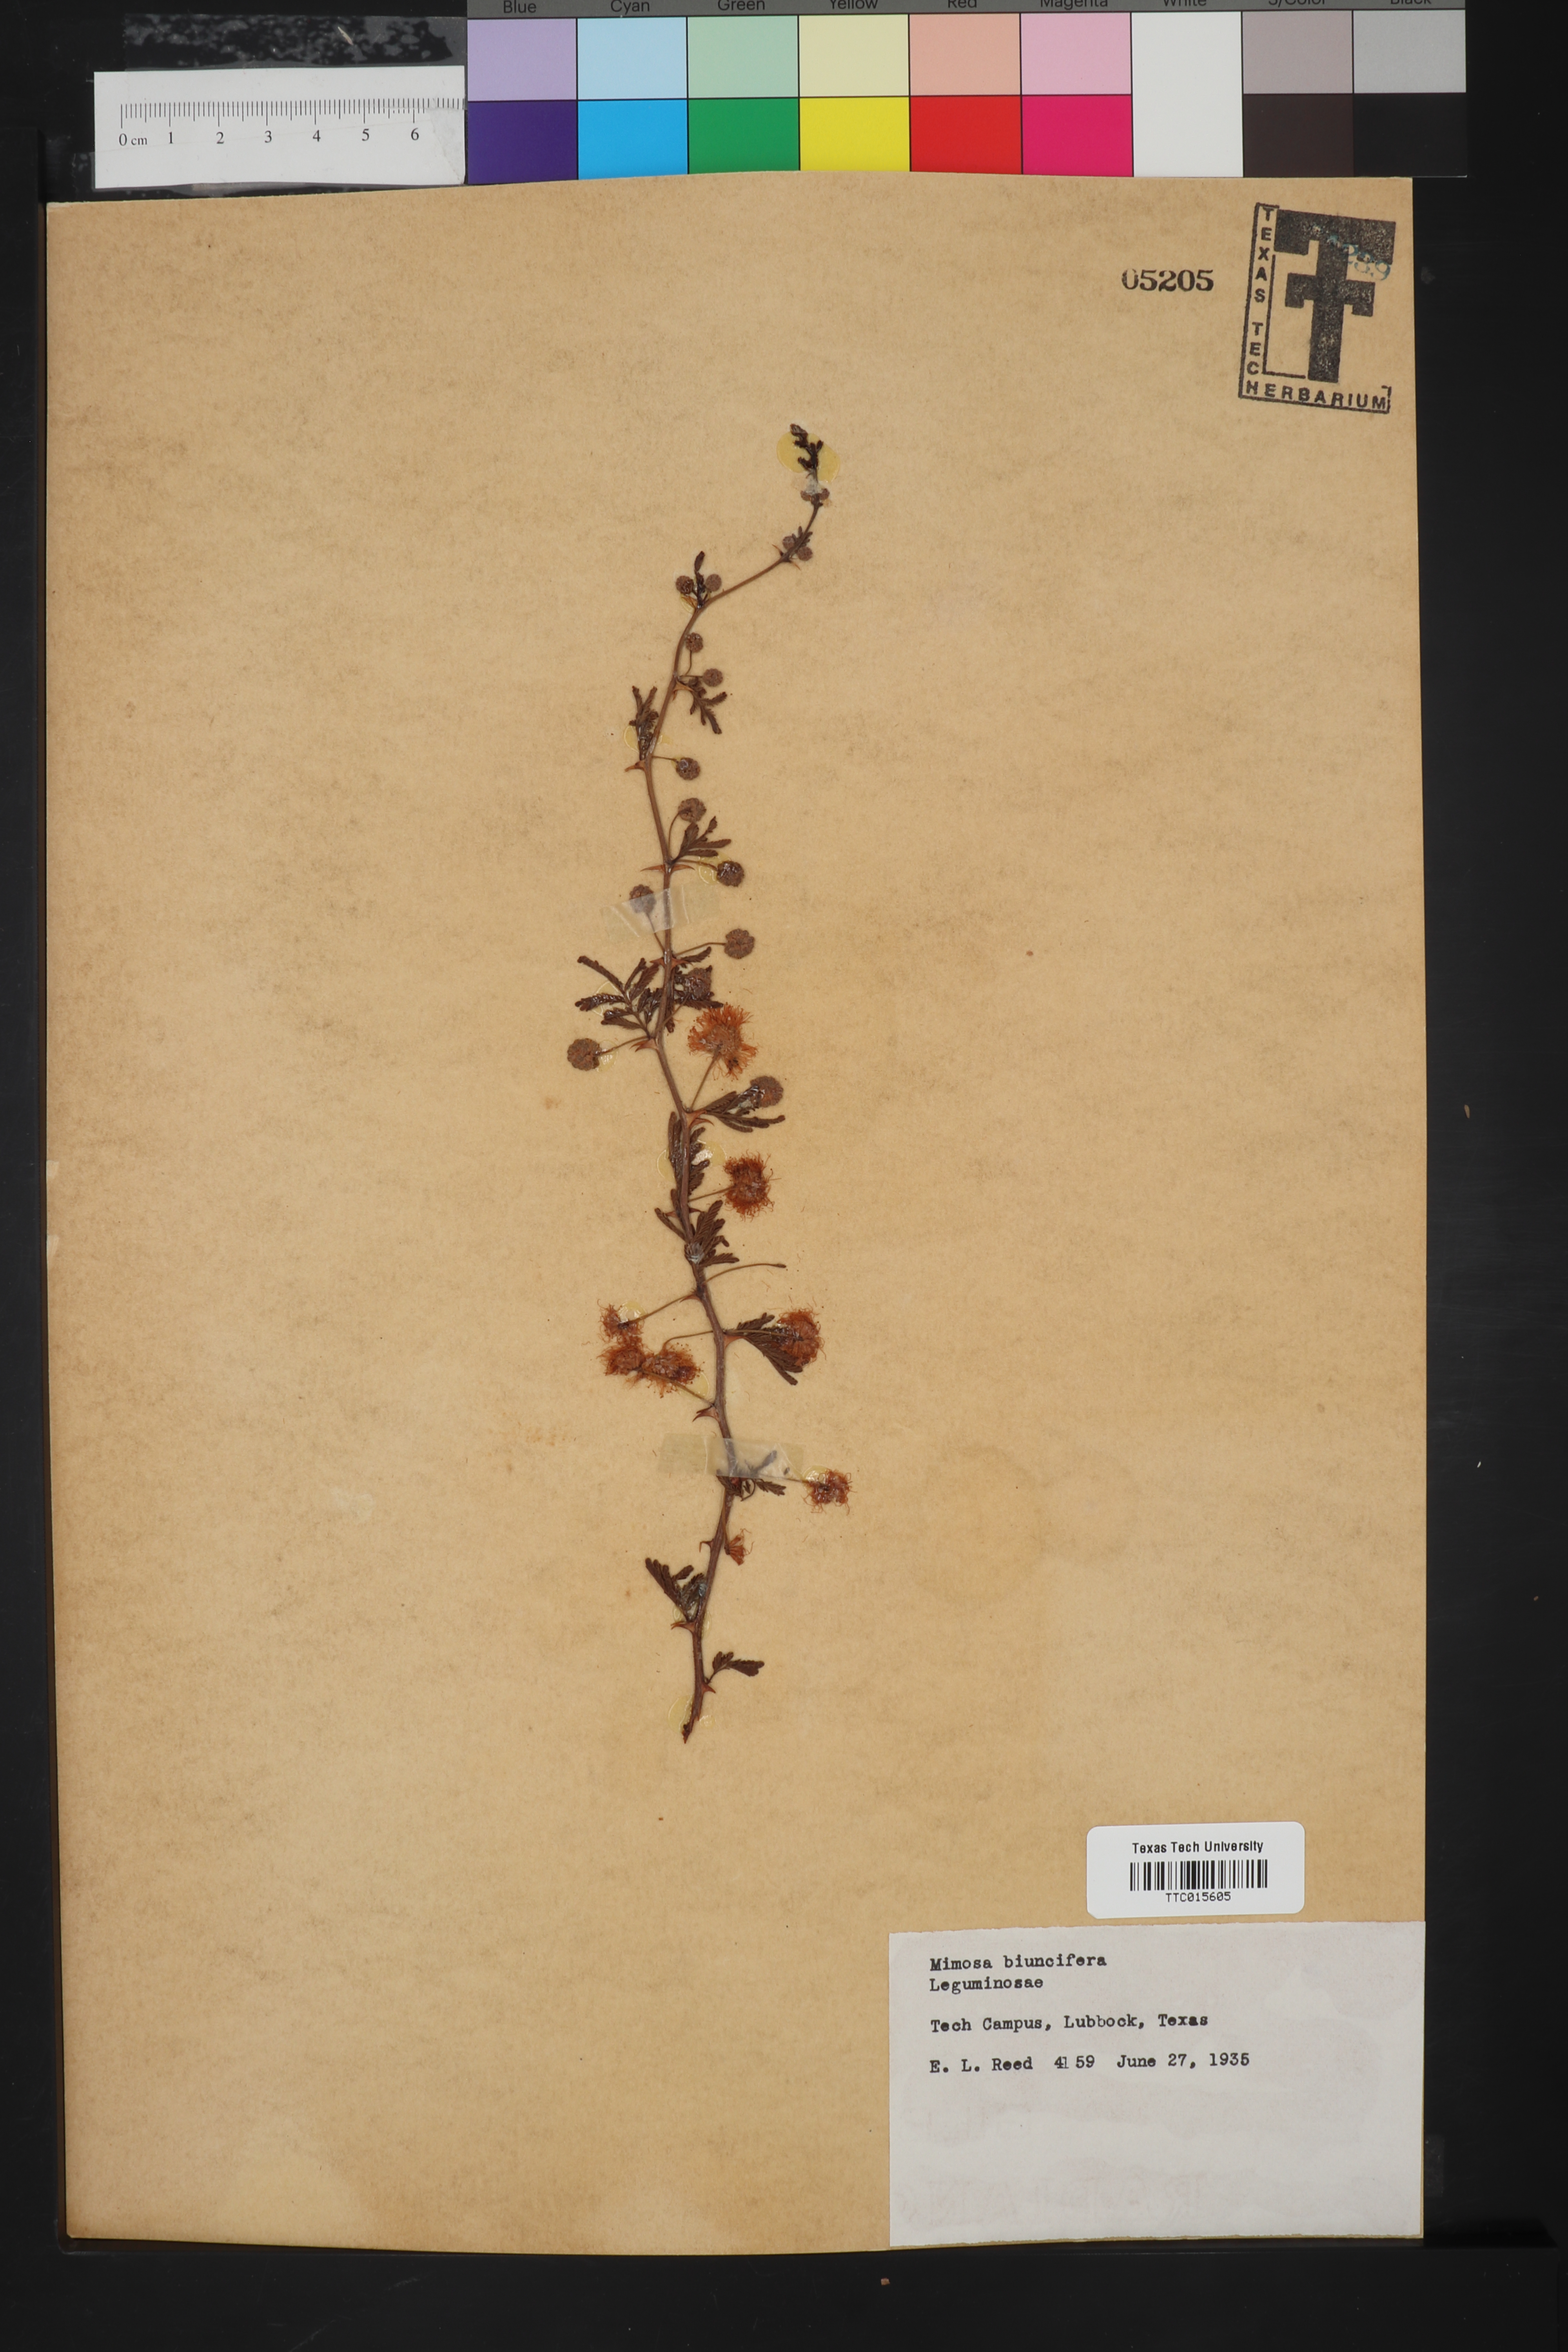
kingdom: Plantae
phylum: Tracheophyta
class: Magnoliopsida
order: Fabales
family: Fabaceae
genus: Mimosa
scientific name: Mimosa biuncifera
